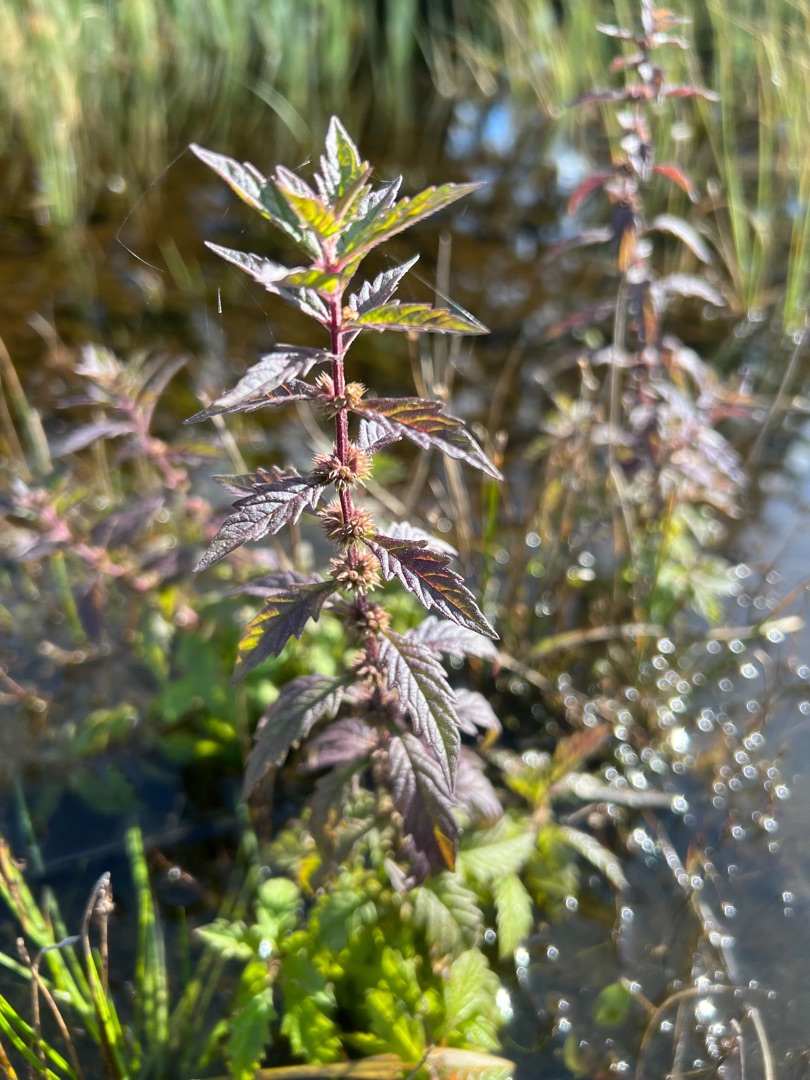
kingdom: Plantae
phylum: Tracheophyta
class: Magnoliopsida
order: Lamiales
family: Lamiaceae
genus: Lycopus
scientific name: Lycopus europaeus
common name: Sværtevæld
